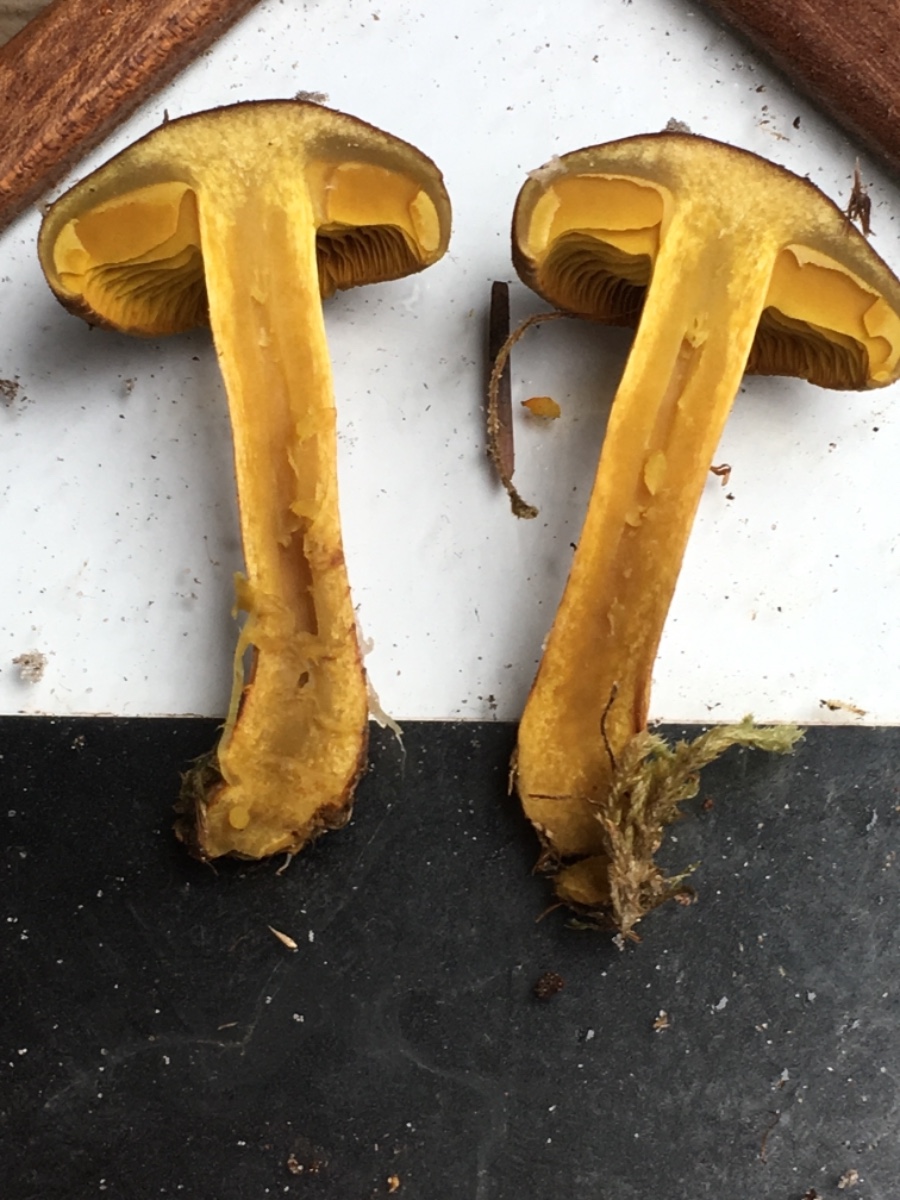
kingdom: Fungi
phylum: Basidiomycota
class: Agaricomycetes
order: Agaricales
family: Cortinariaceae
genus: Cortinarius
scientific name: Cortinarius
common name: gulbladet slørhat
